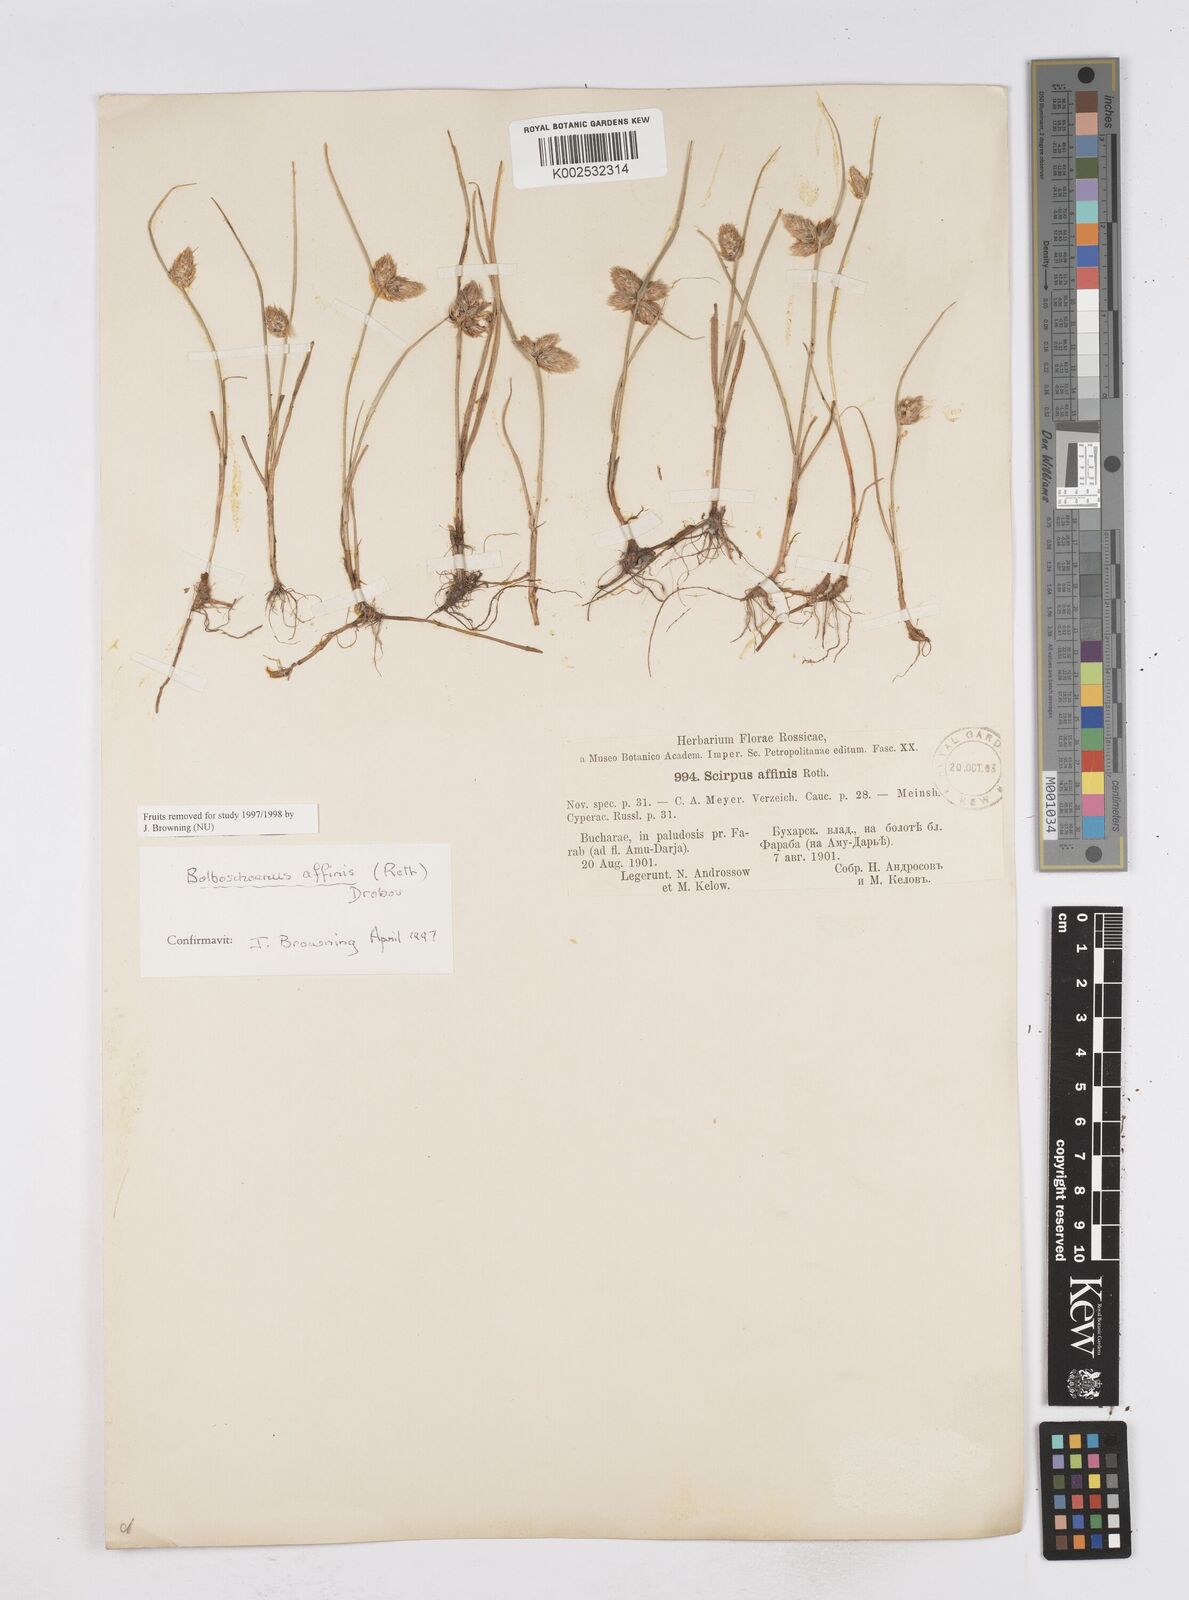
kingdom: Plantae
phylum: Tracheophyta
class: Liliopsida
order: Poales
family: Cyperaceae
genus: Bolboschoenus
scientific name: Bolboschoenus maritimus
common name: Sea club-rush
